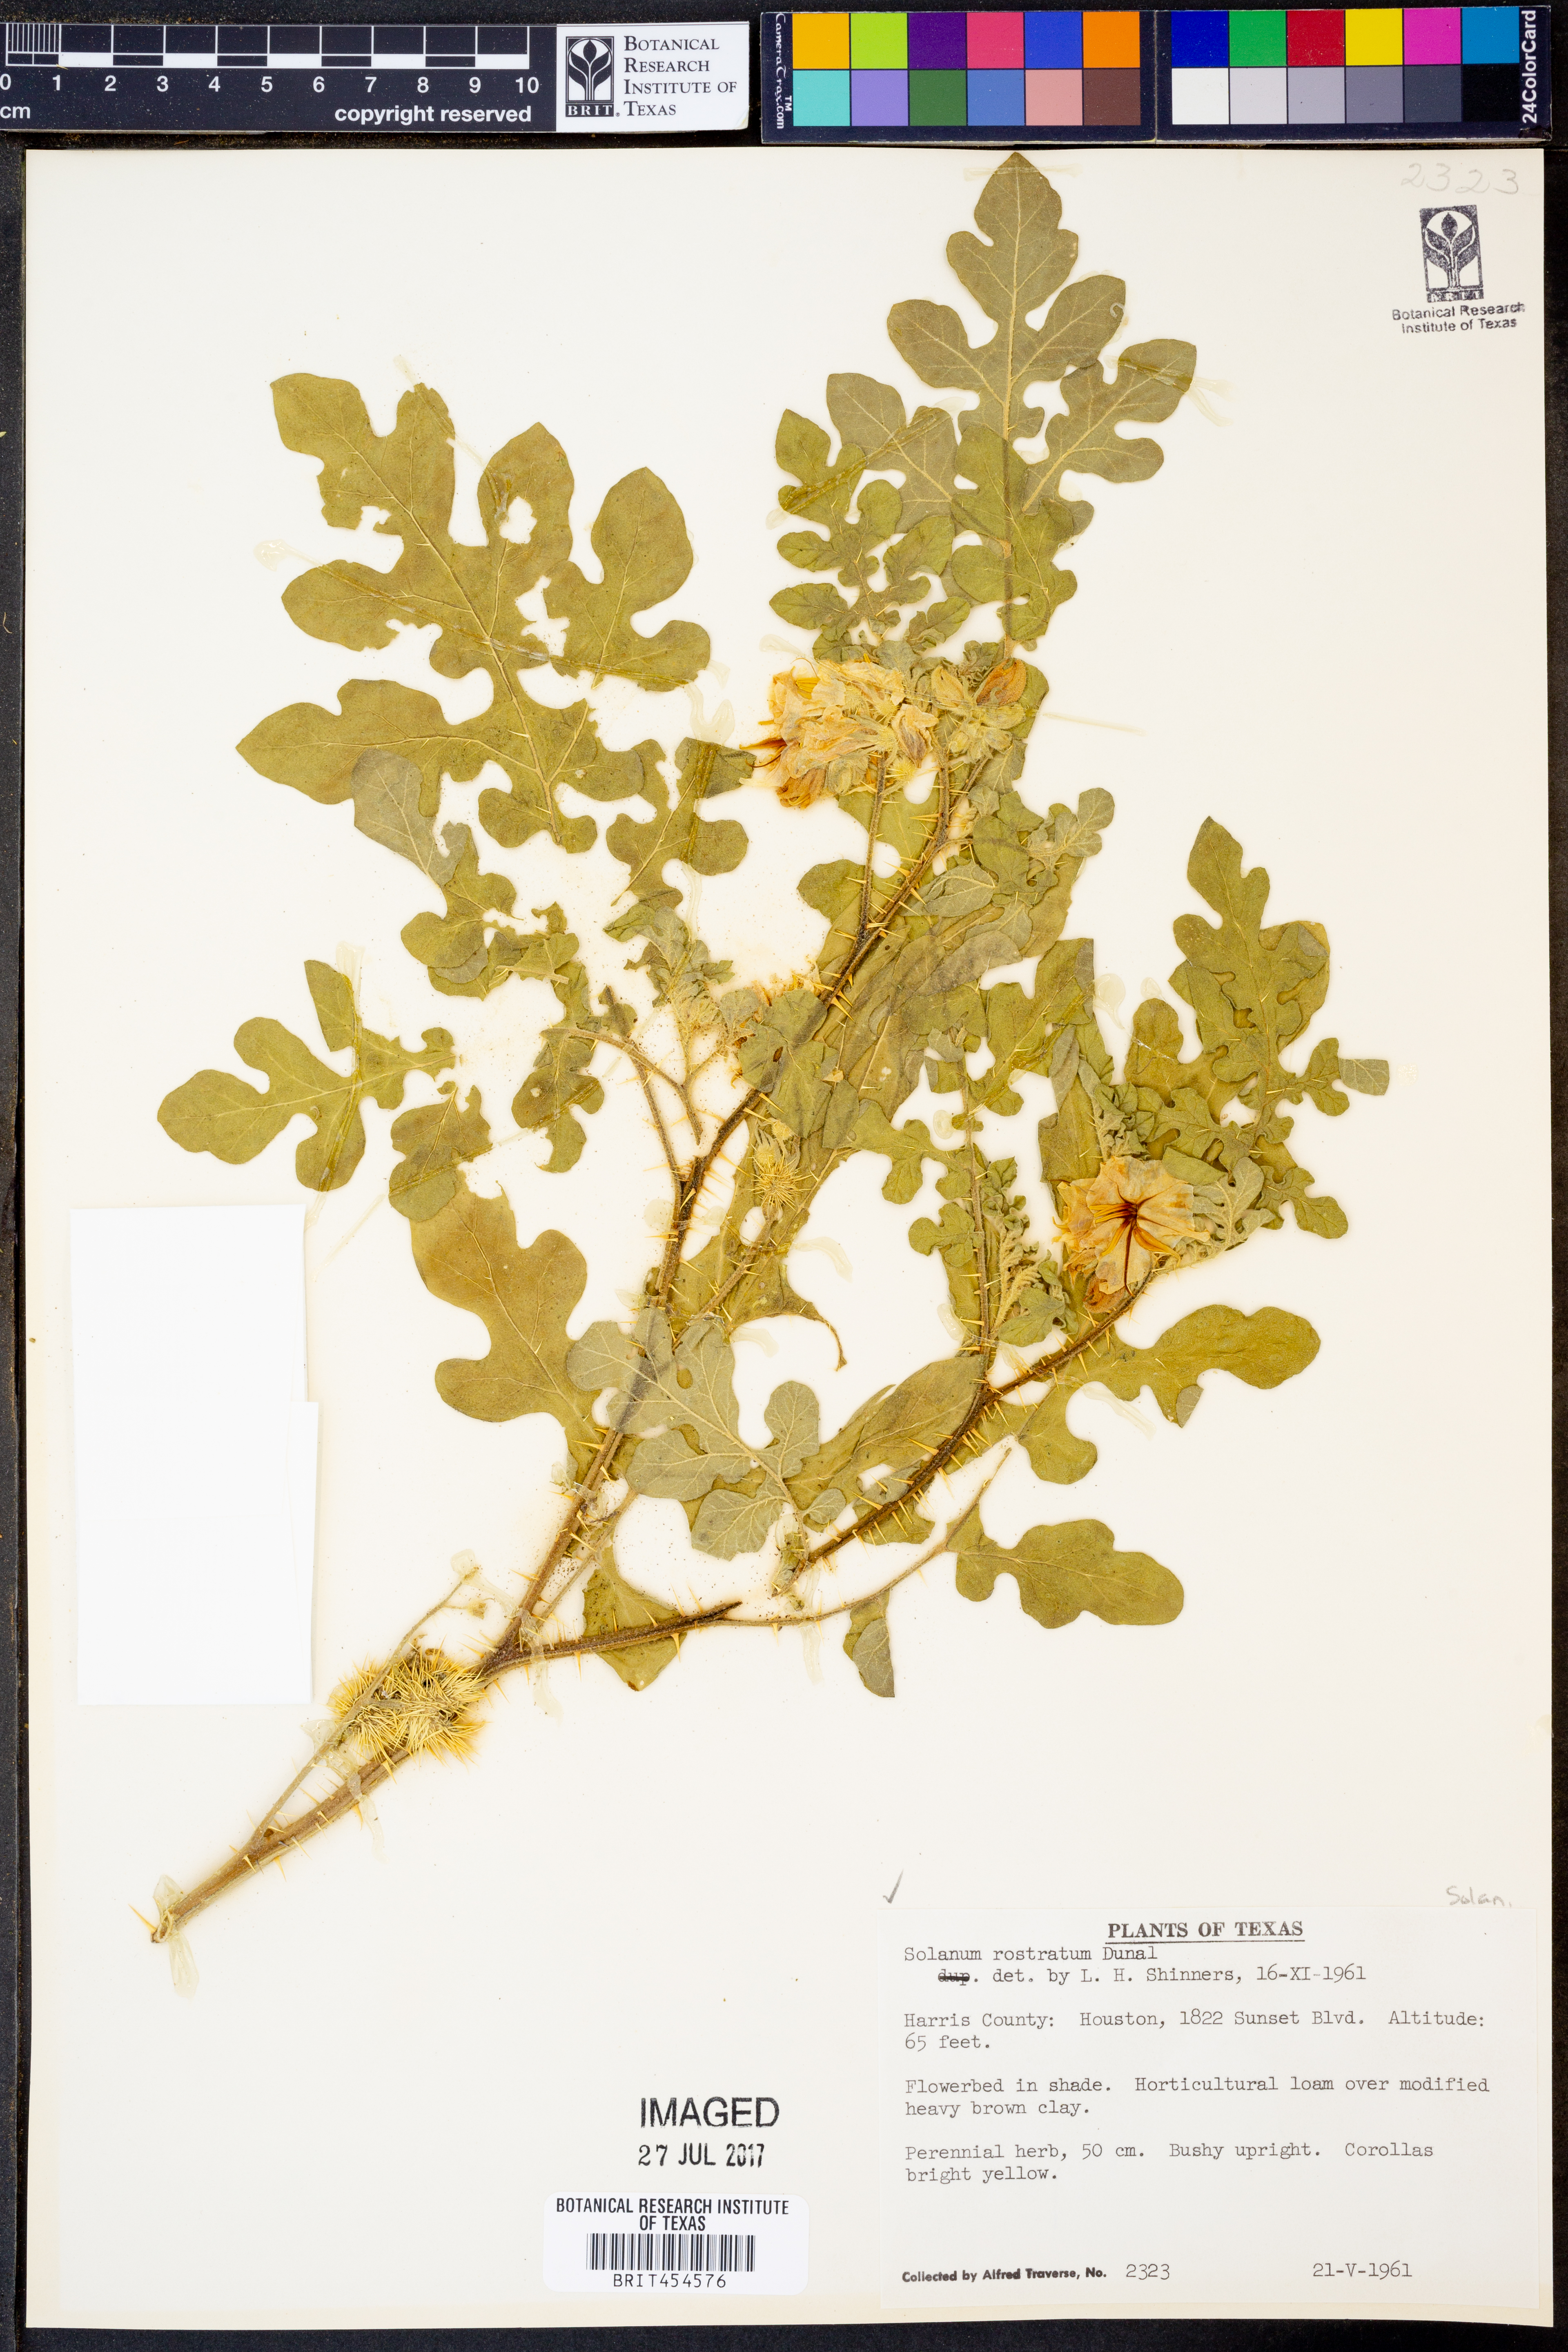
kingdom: Plantae
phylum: Tracheophyta
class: Magnoliopsida
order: Solanales
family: Solanaceae
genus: Solanum
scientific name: Solanum angustifolium
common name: Buffalobur nightshade
